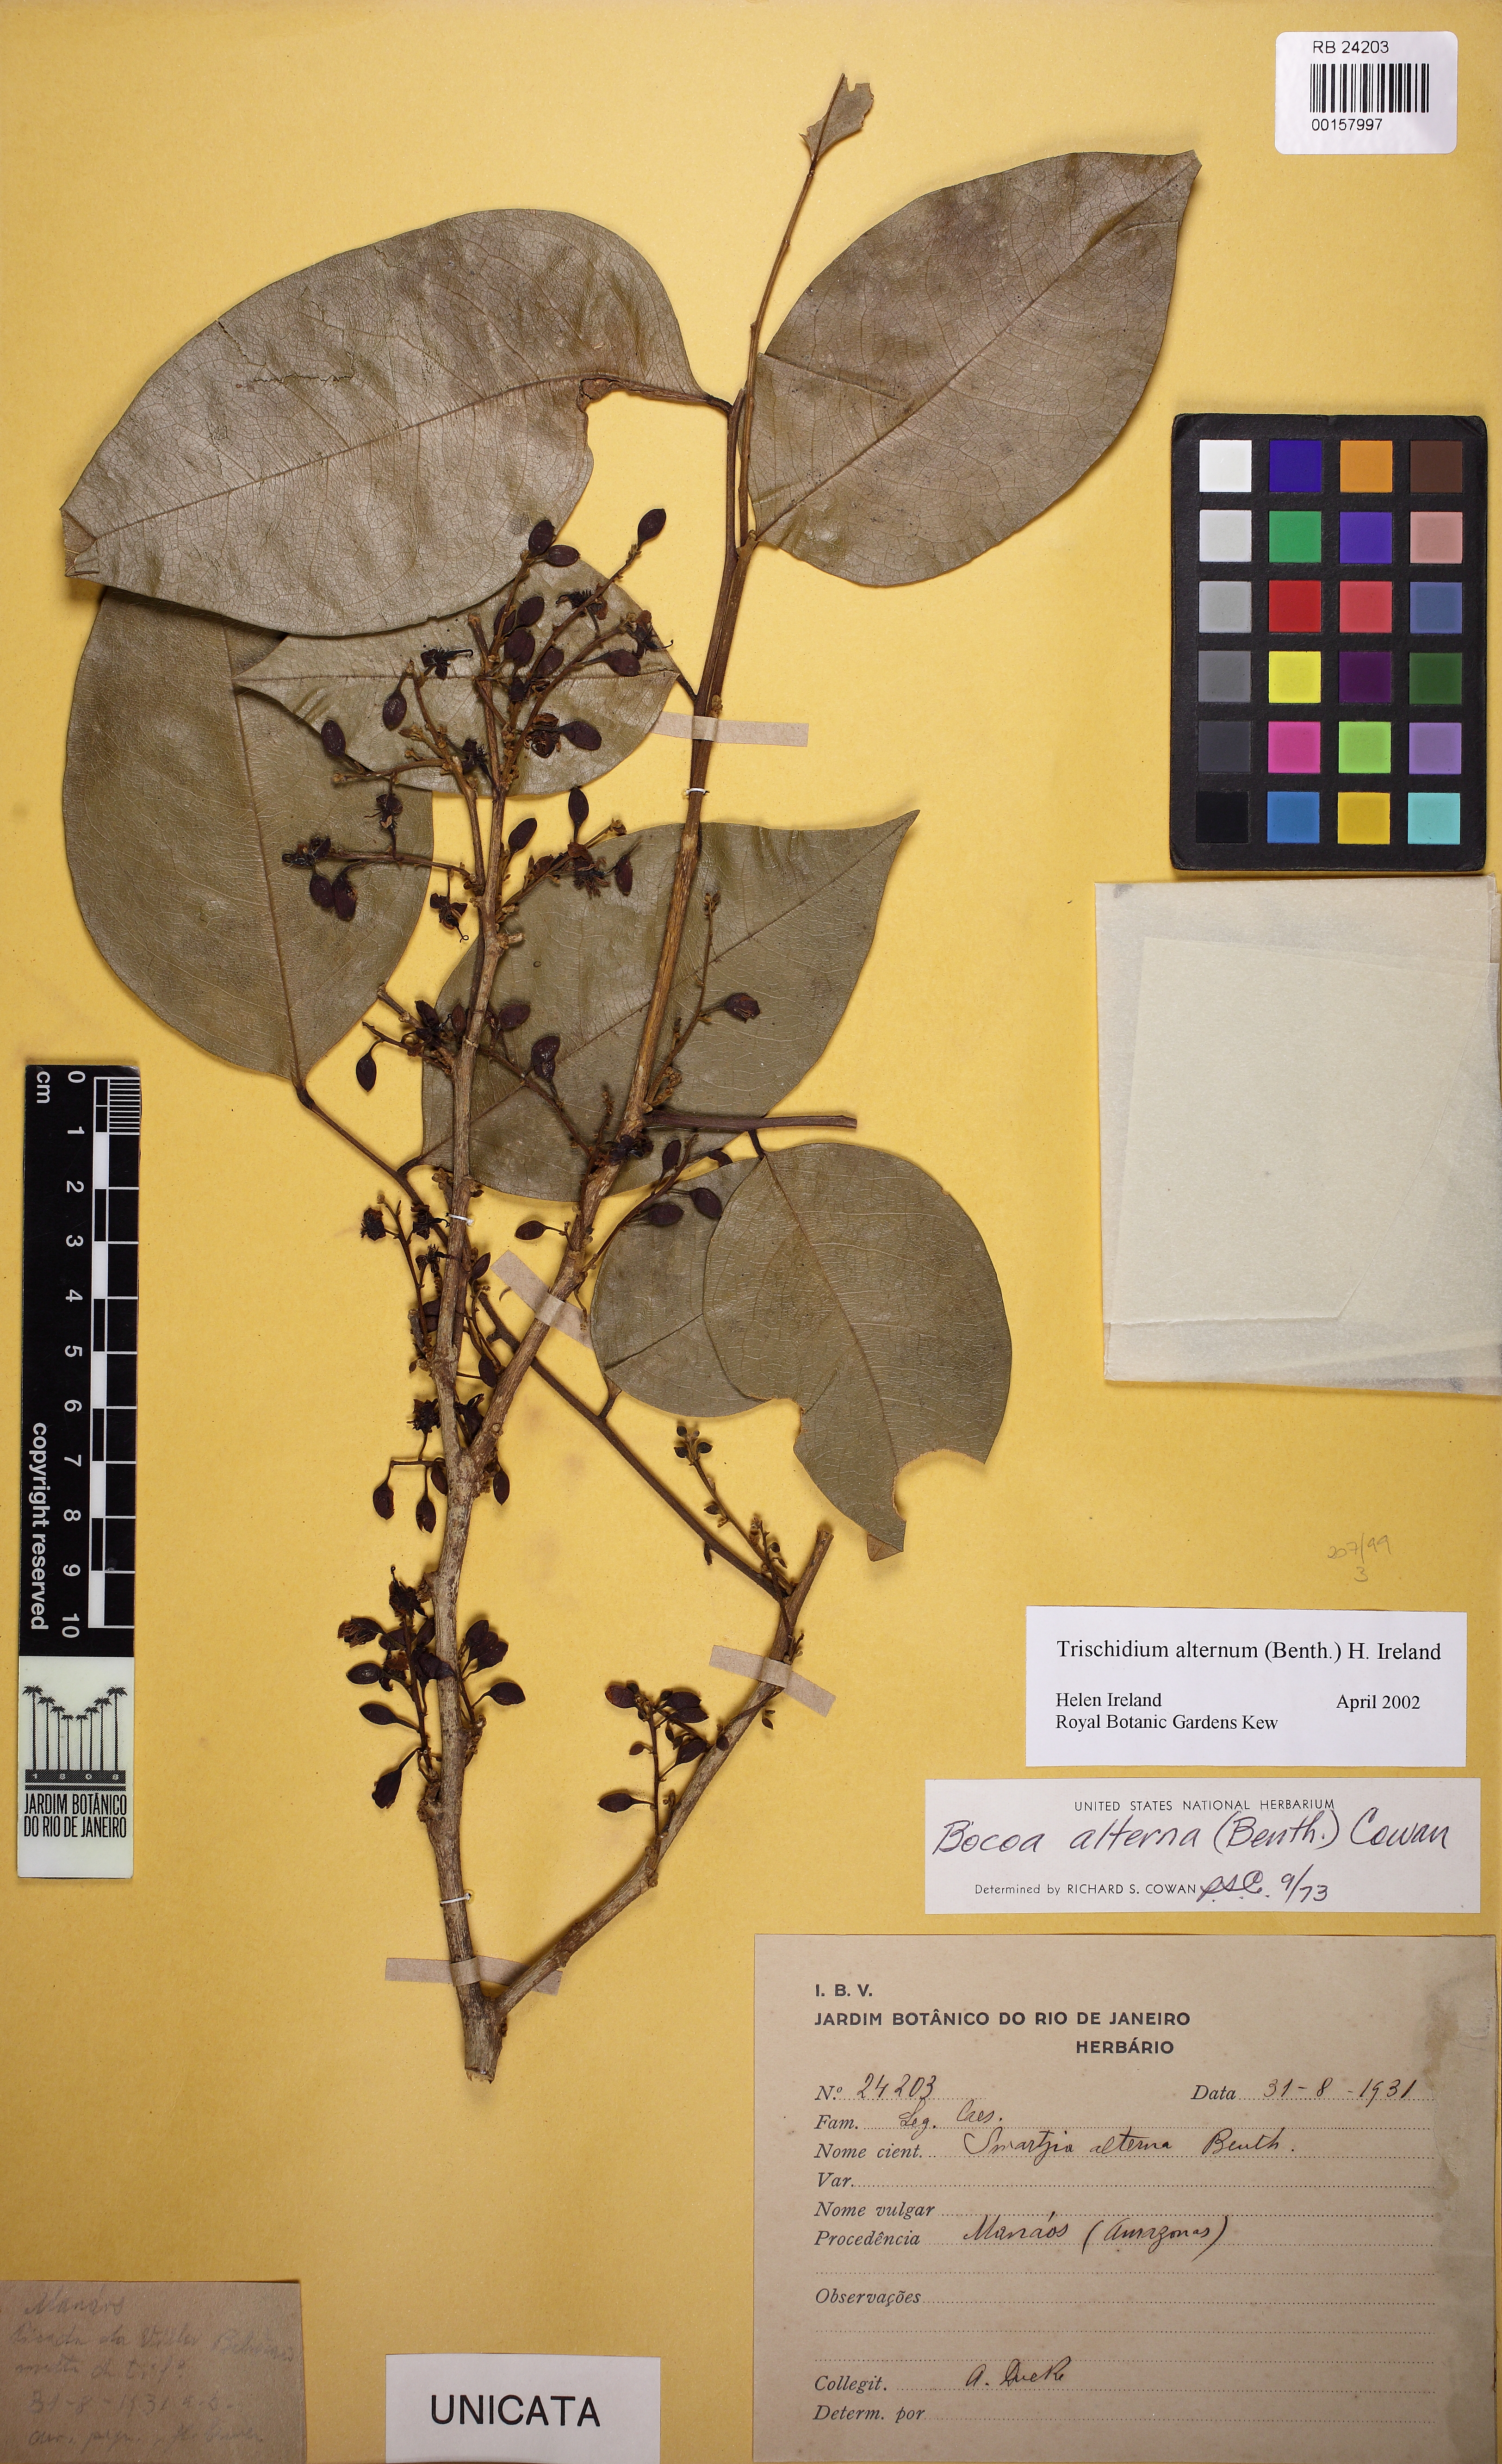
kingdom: Plantae
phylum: Tracheophyta
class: Magnoliopsida
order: Fabales
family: Fabaceae
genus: Trischidium
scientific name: Trischidium alternum
